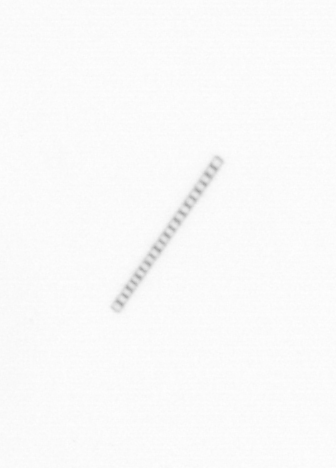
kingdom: Chromista
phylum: Ochrophyta
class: Bacillariophyceae
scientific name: Bacillariophyceae
